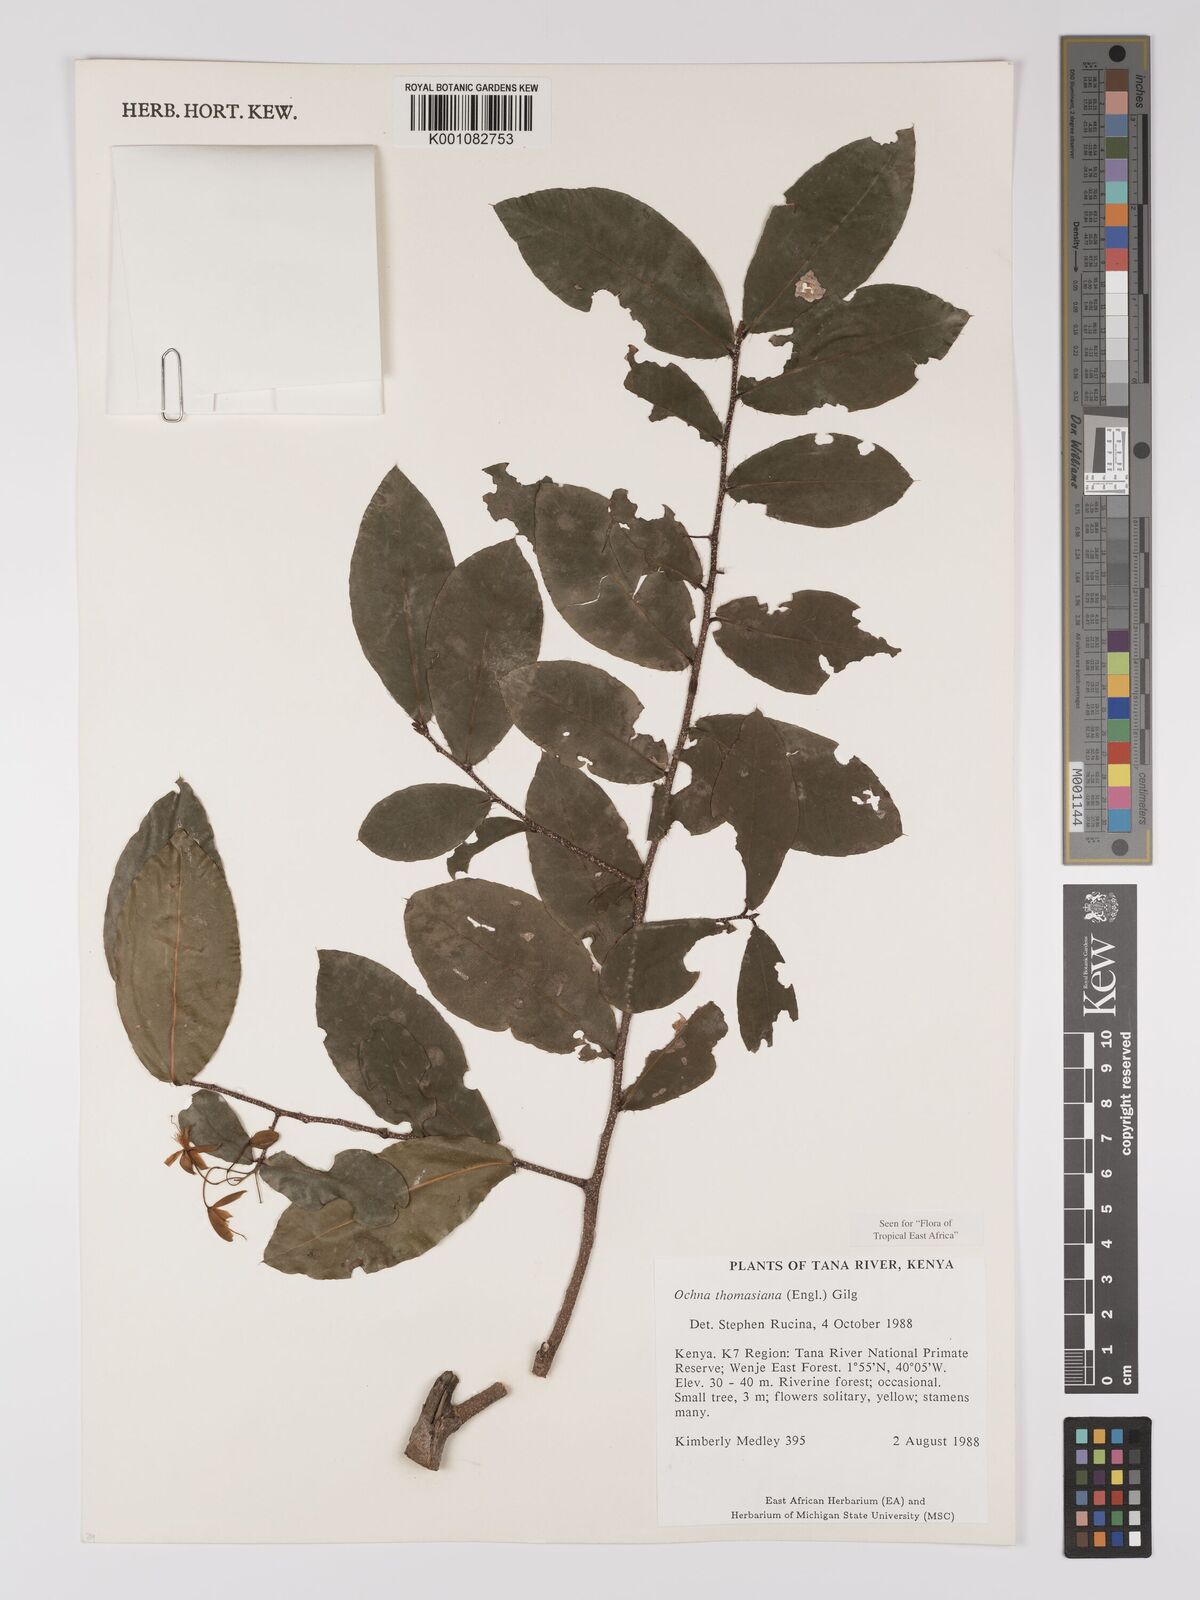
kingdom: Plantae
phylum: Tracheophyta
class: Magnoliopsida
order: Malpighiales
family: Ochnaceae
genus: Ochna
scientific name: Ochna thomasiana
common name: Thomas' bird's-eye bush
